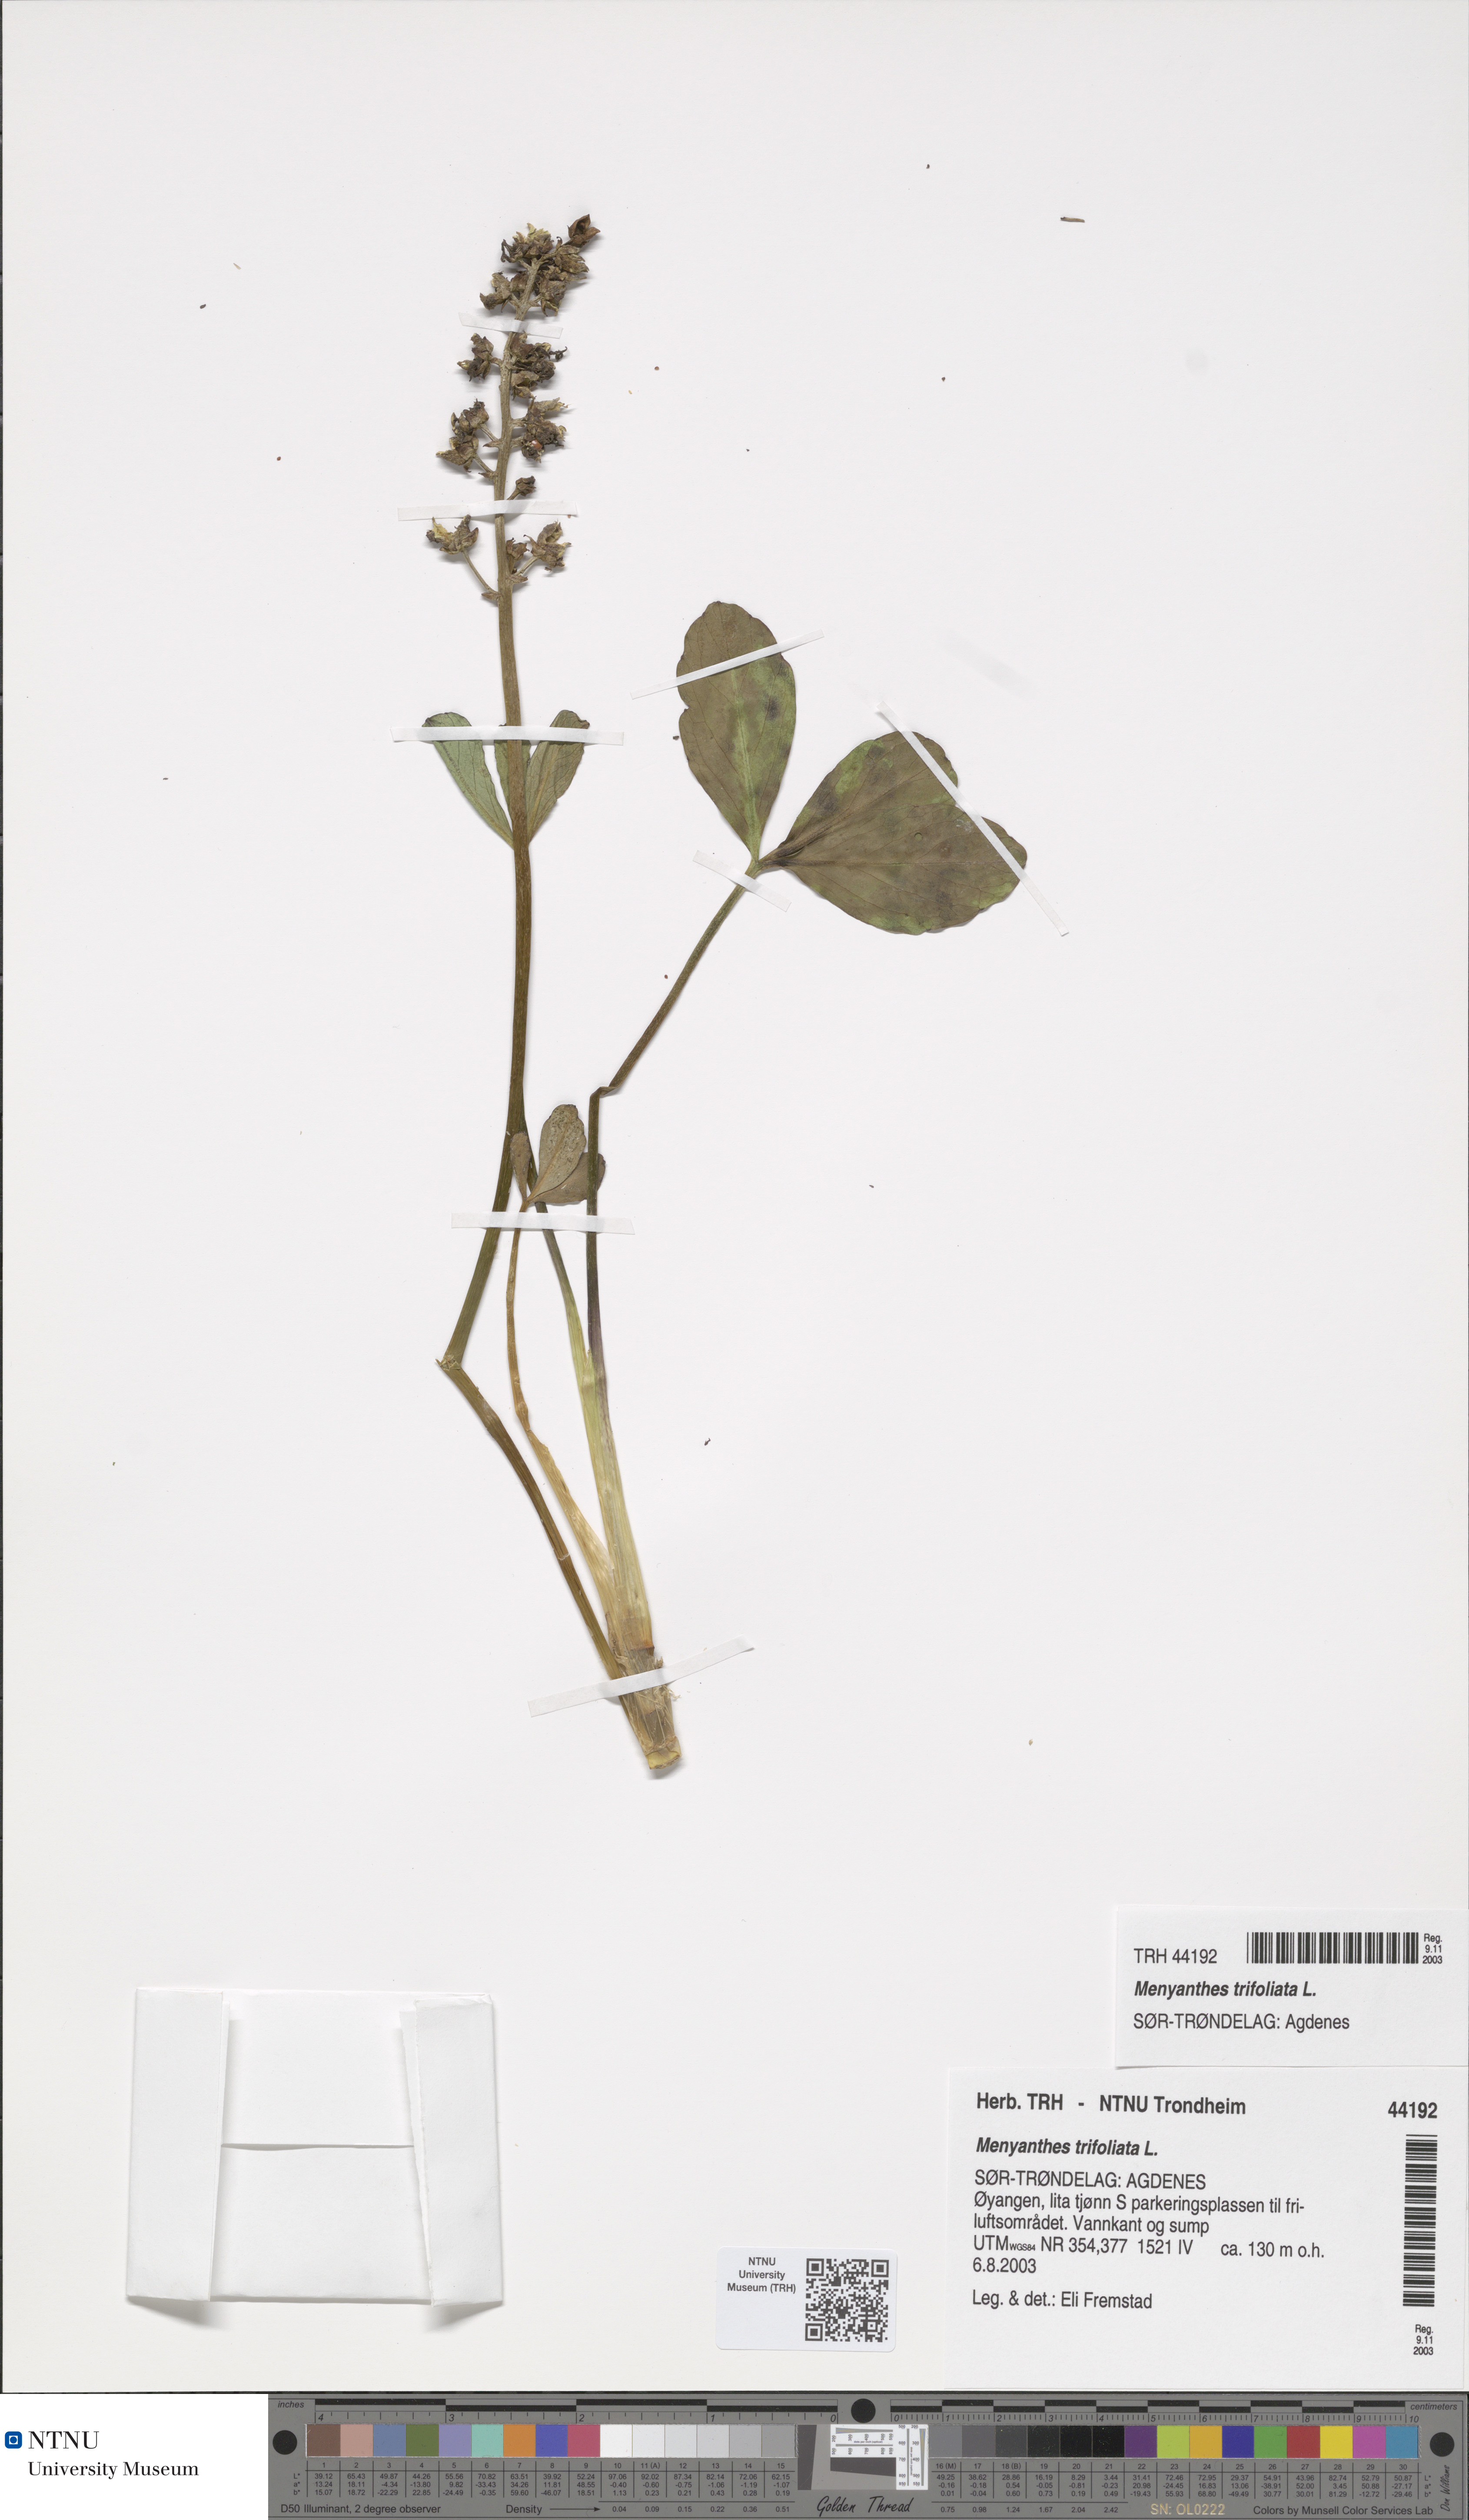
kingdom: Plantae
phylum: Tracheophyta
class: Magnoliopsida
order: Asterales
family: Menyanthaceae
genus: Menyanthes
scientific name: Menyanthes trifoliata
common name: Bogbean
